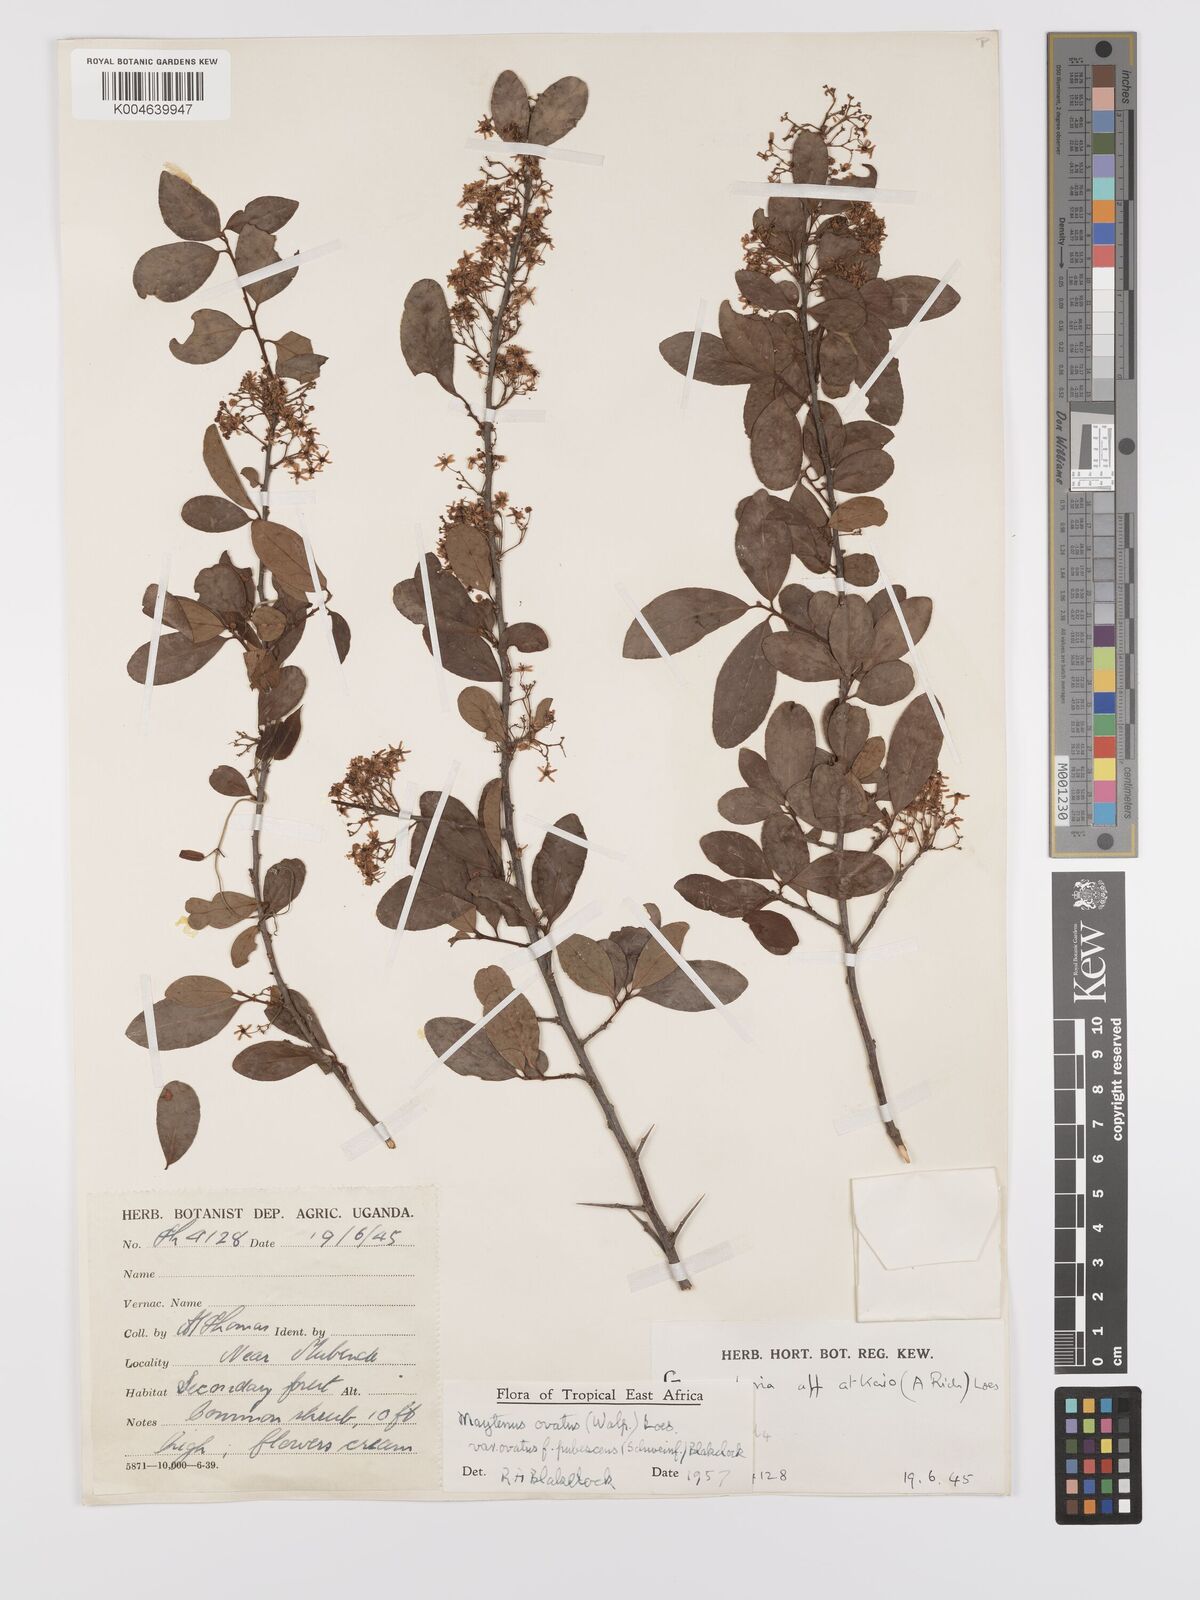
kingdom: Plantae
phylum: Tracheophyta
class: Magnoliopsida
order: Celastrales
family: Celastraceae
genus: Gymnosporia
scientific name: Gymnosporia
